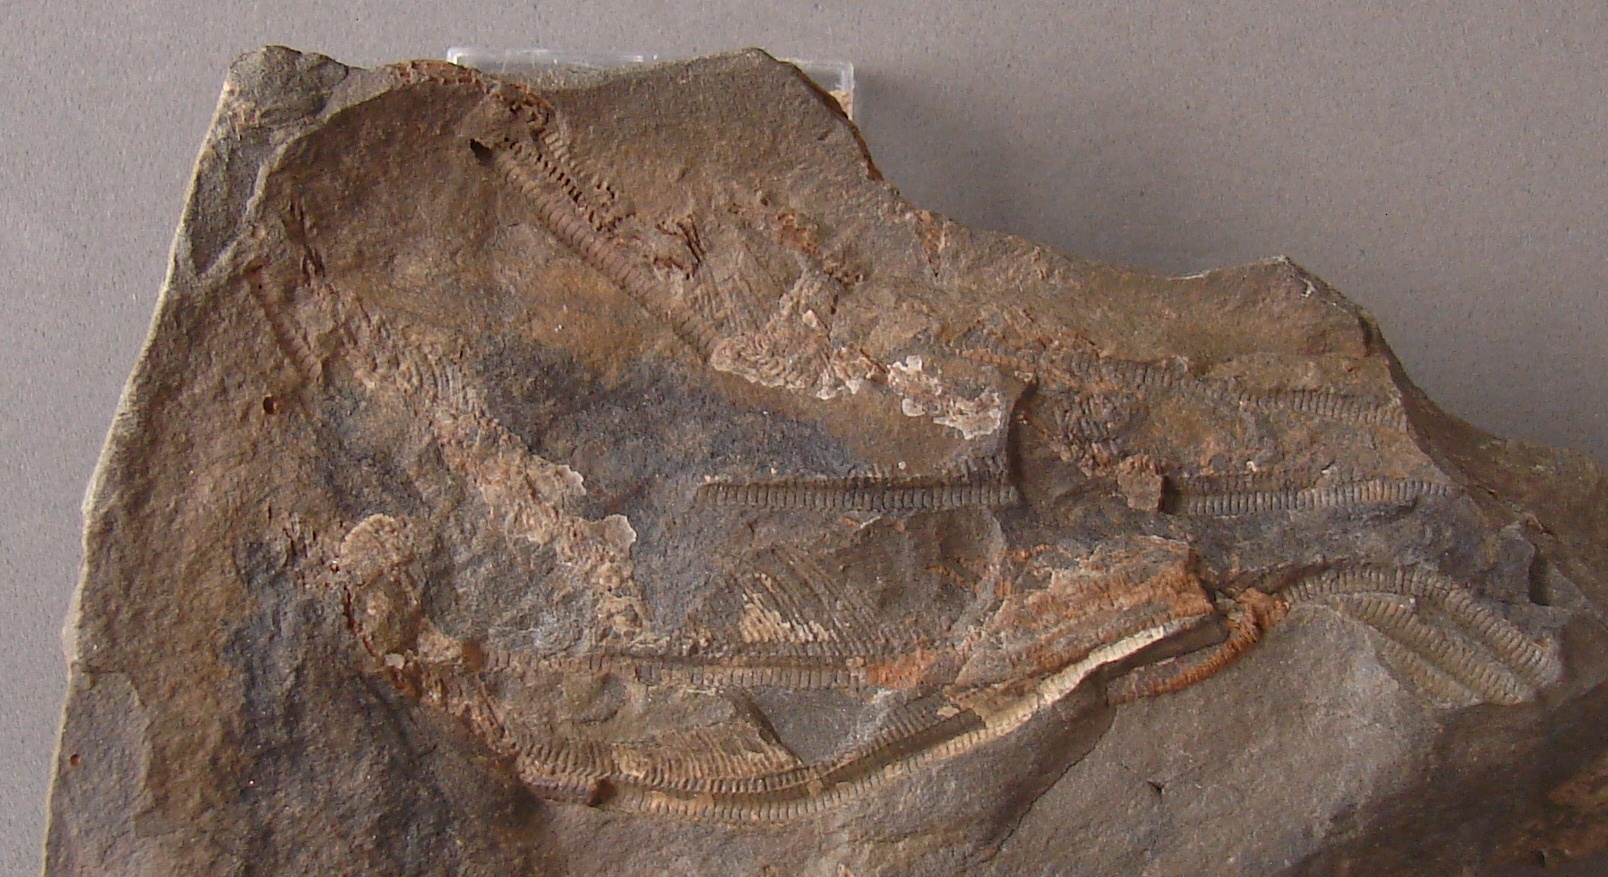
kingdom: Animalia
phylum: Echinodermata
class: Crinoidea
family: Rhodocrinitidae
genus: Acanthocrinus
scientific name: Acanthocrinus
